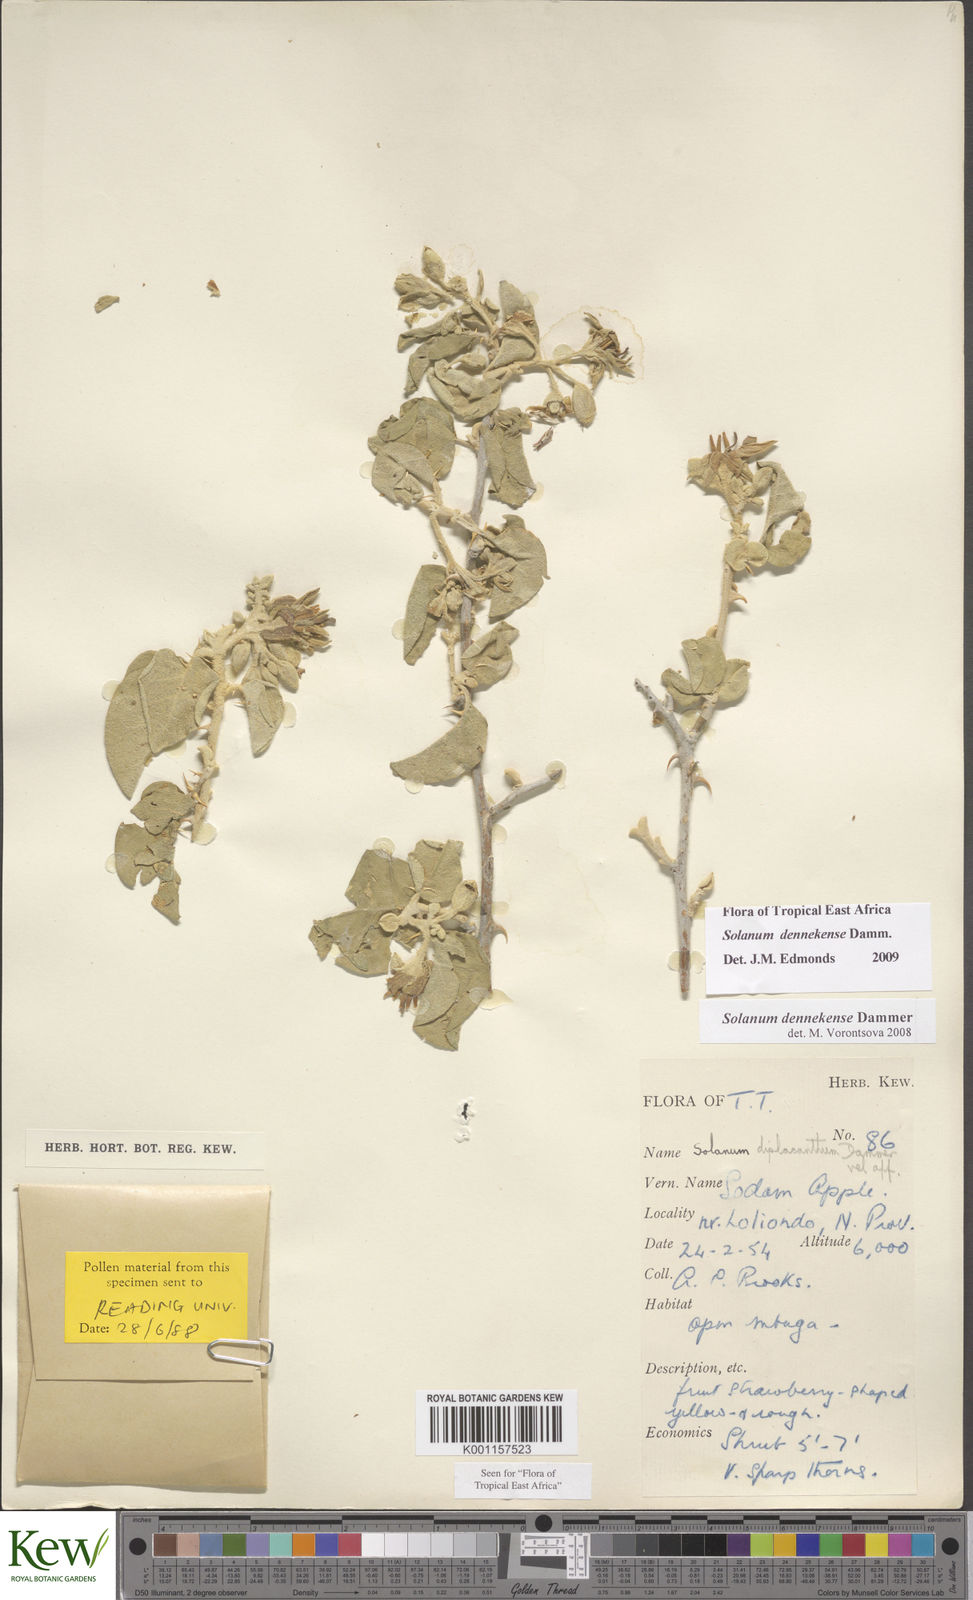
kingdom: Plantae
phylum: Tracheophyta
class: Magnoliopsida
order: Solanales
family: Solanaceae
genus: Solanum
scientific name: Solanum dennekense
